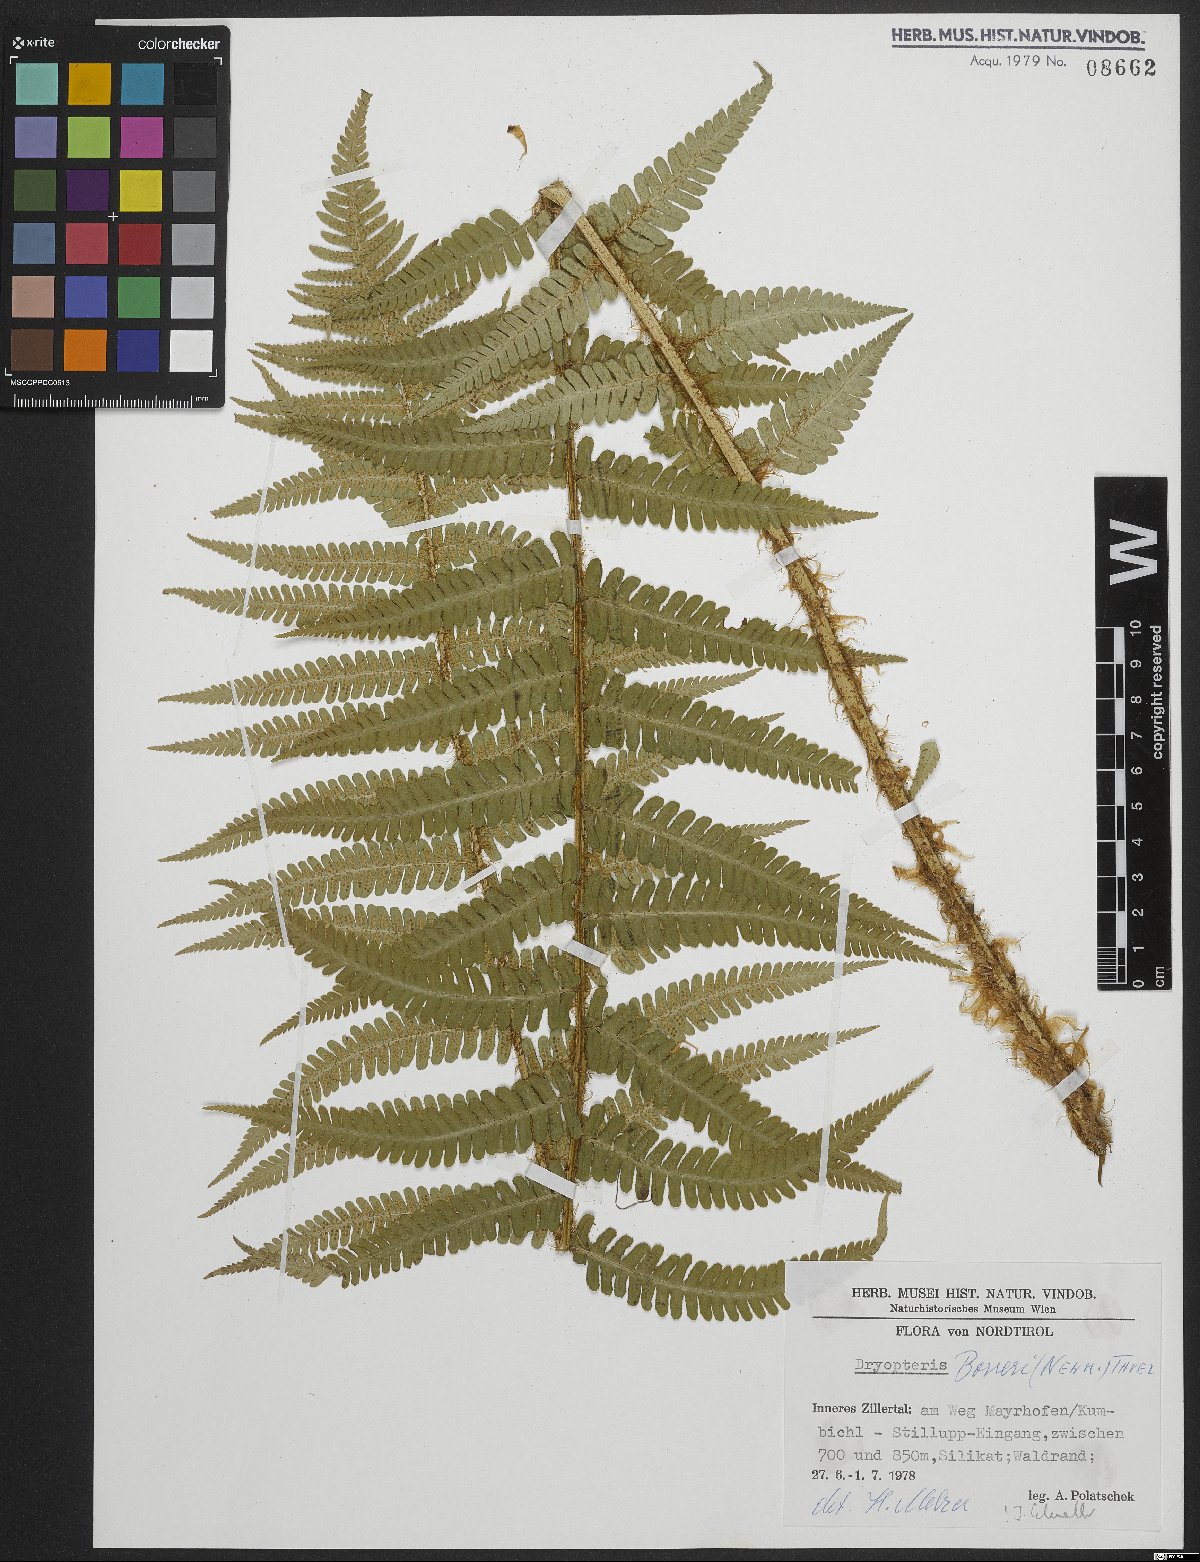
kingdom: Plantae
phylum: Tracheophyta
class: Polypodiopsida
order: Polypodiales
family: Dryopteridaceae
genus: Dryopteris
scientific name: Dryopteris borreri
